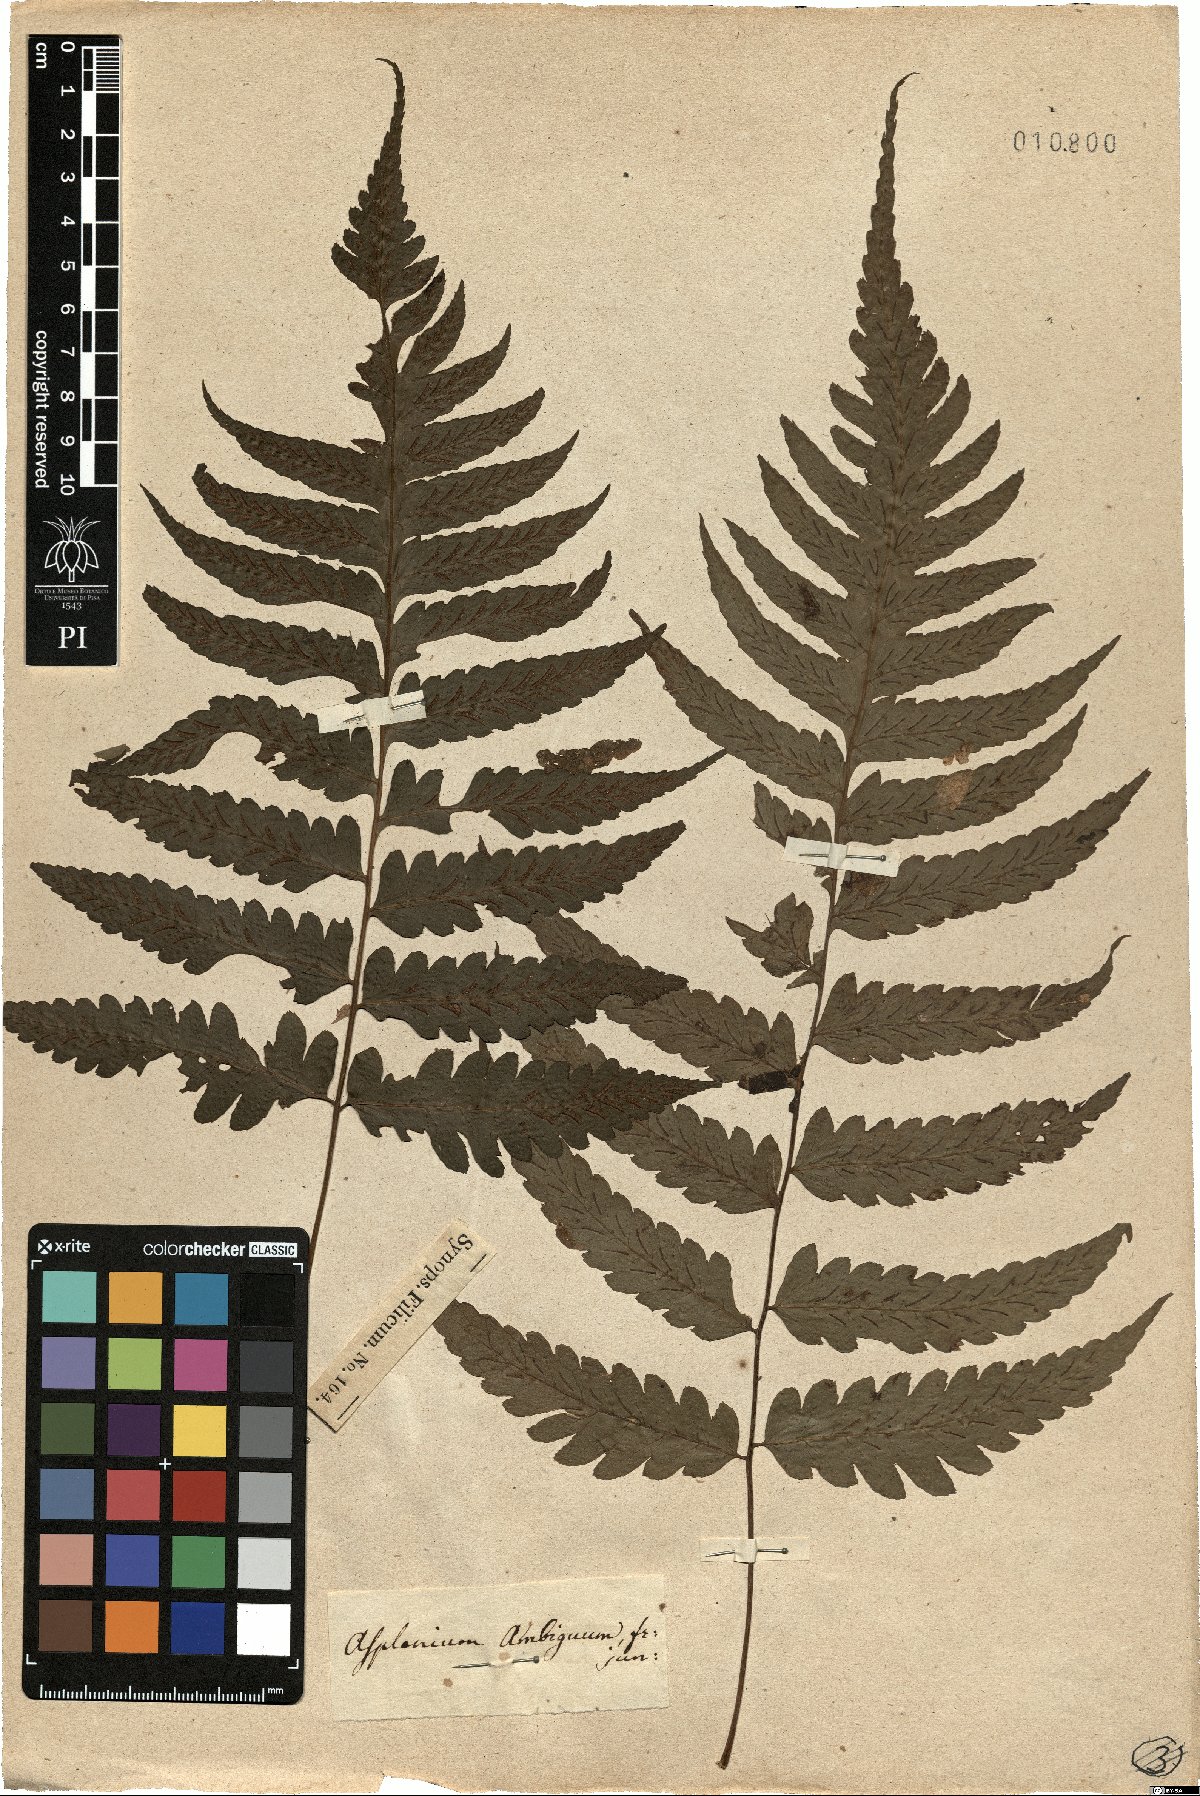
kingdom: Plantae
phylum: Tracheophyta
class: Polypodiopsida
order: Polypodiales
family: Athyriaceae
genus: Diplazium
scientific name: Diplazium cristatum
